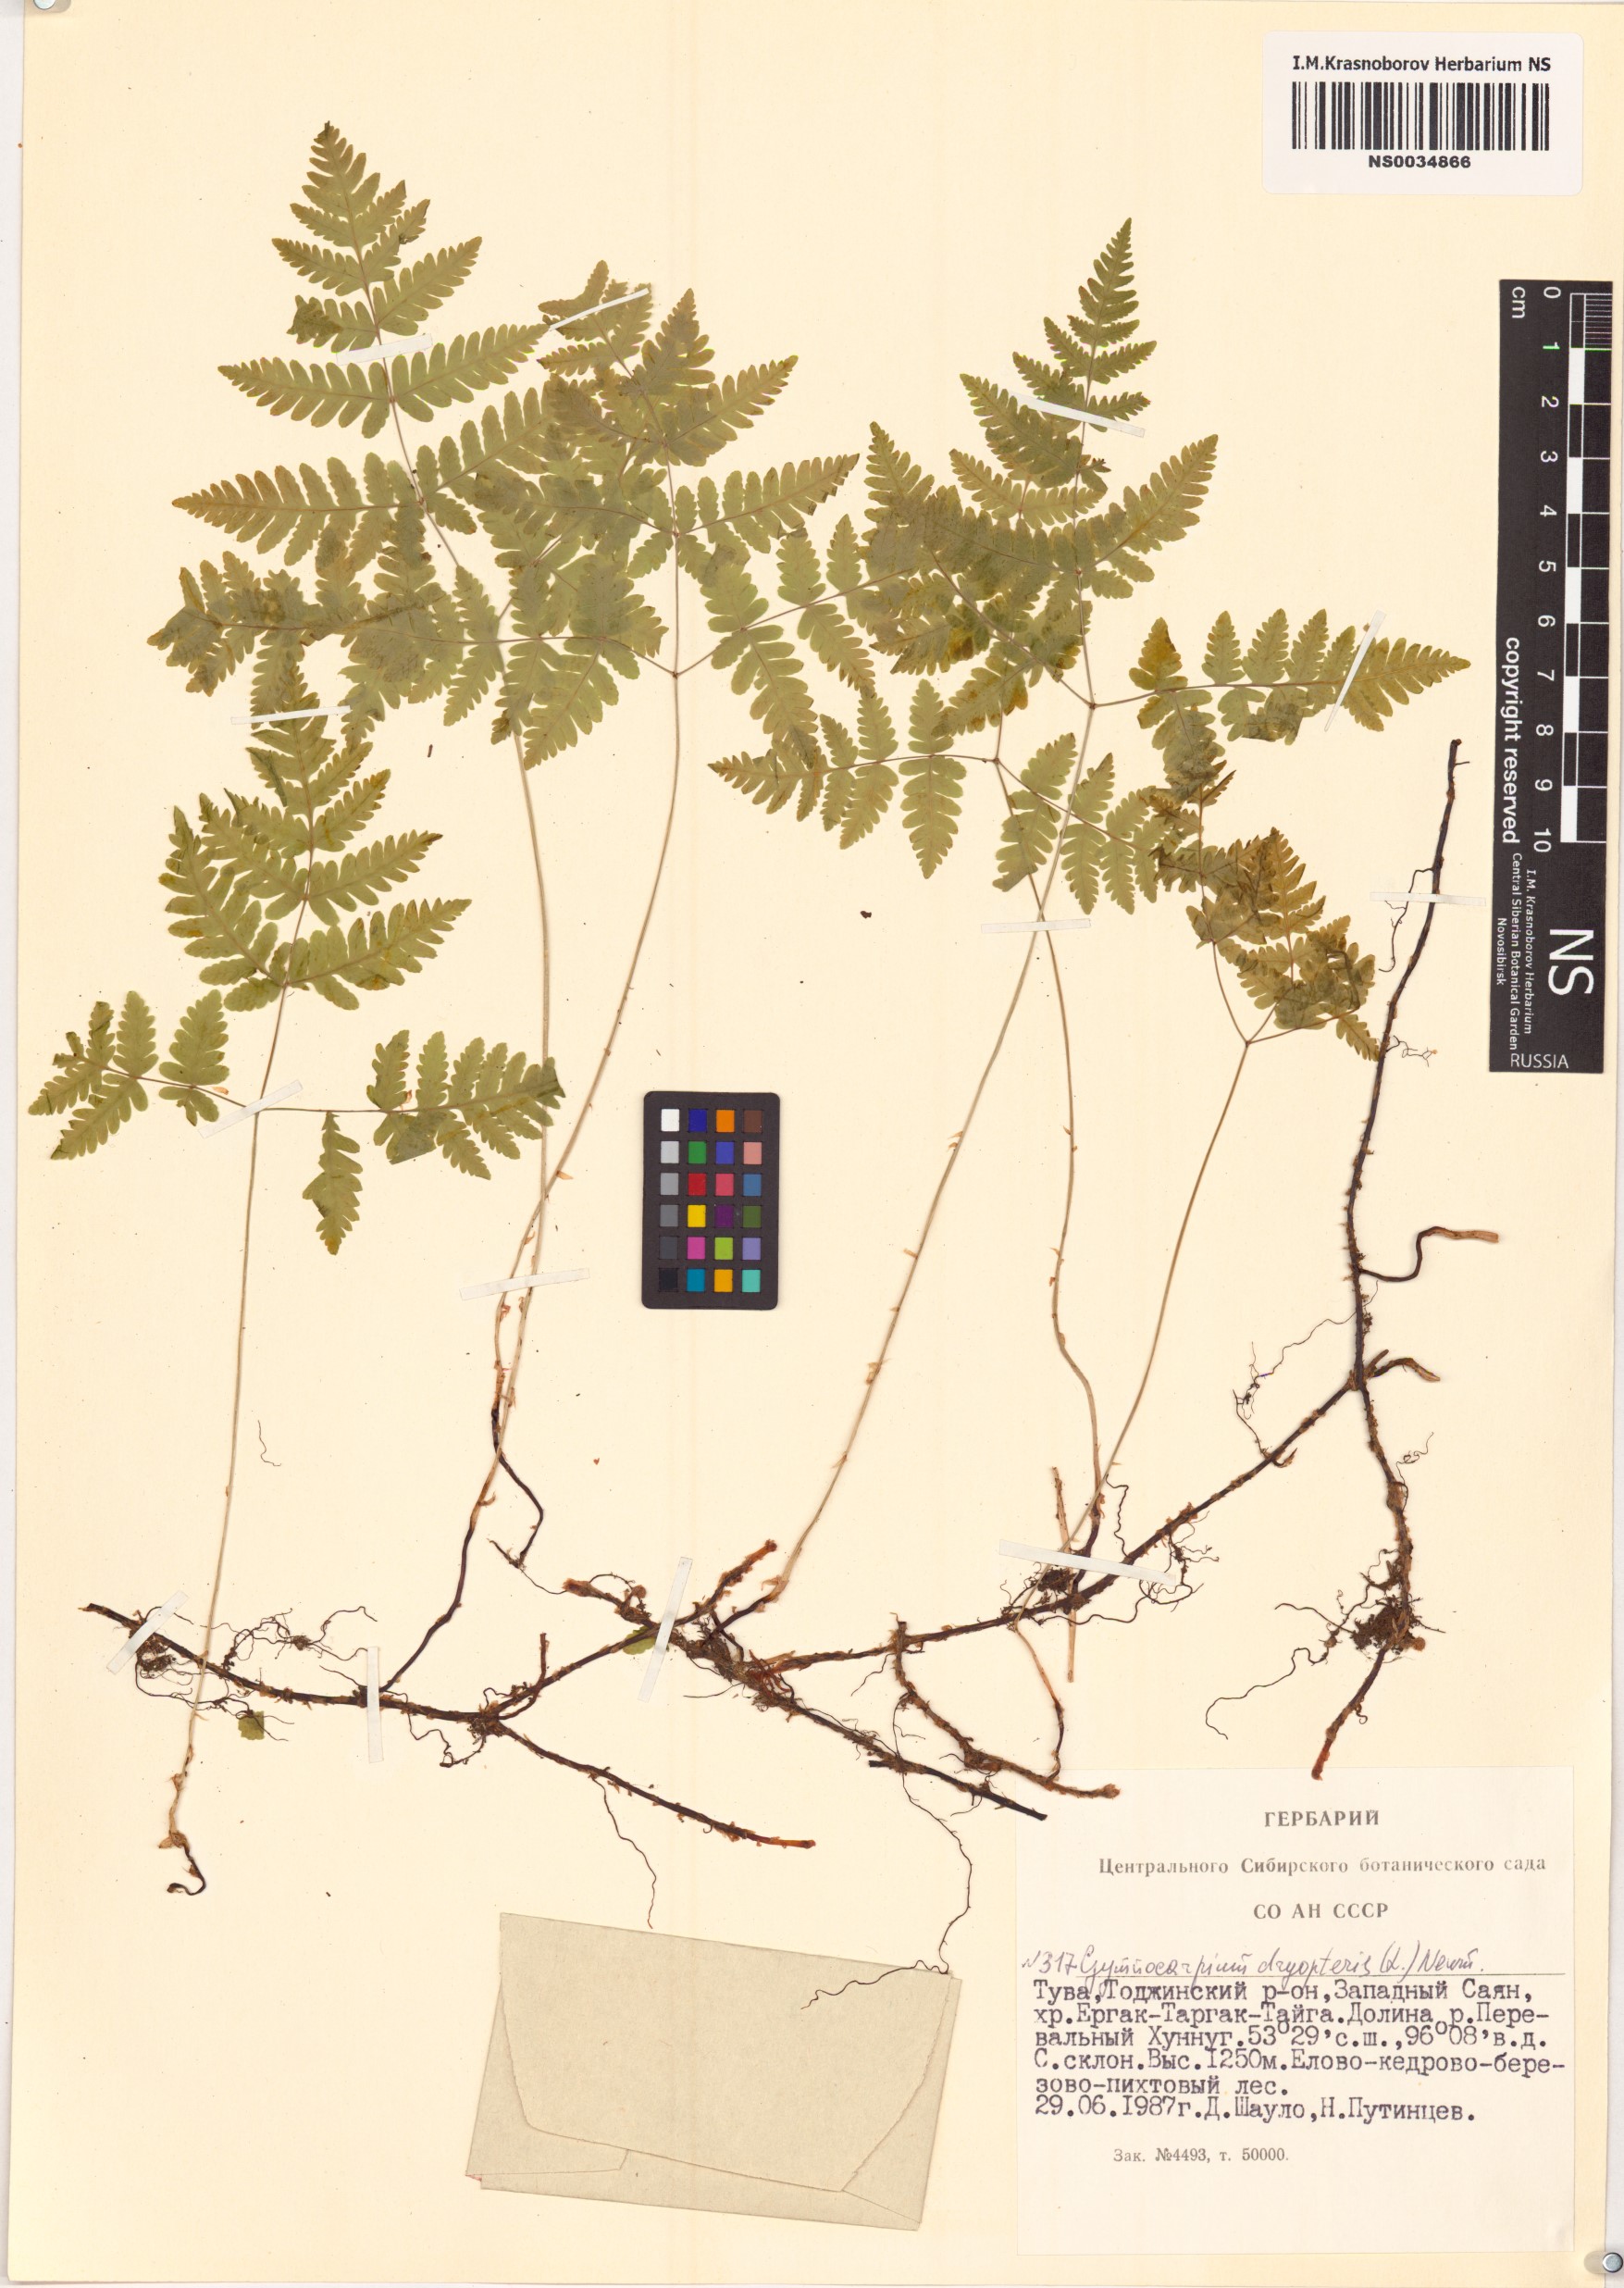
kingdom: Plantae
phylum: Tracheophyta
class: Polypodiopsida
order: Polypodiales
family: Cystopteridaceae
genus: Gymnocarpium
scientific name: Gymnocarpium dryopteris
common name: Oak fern
